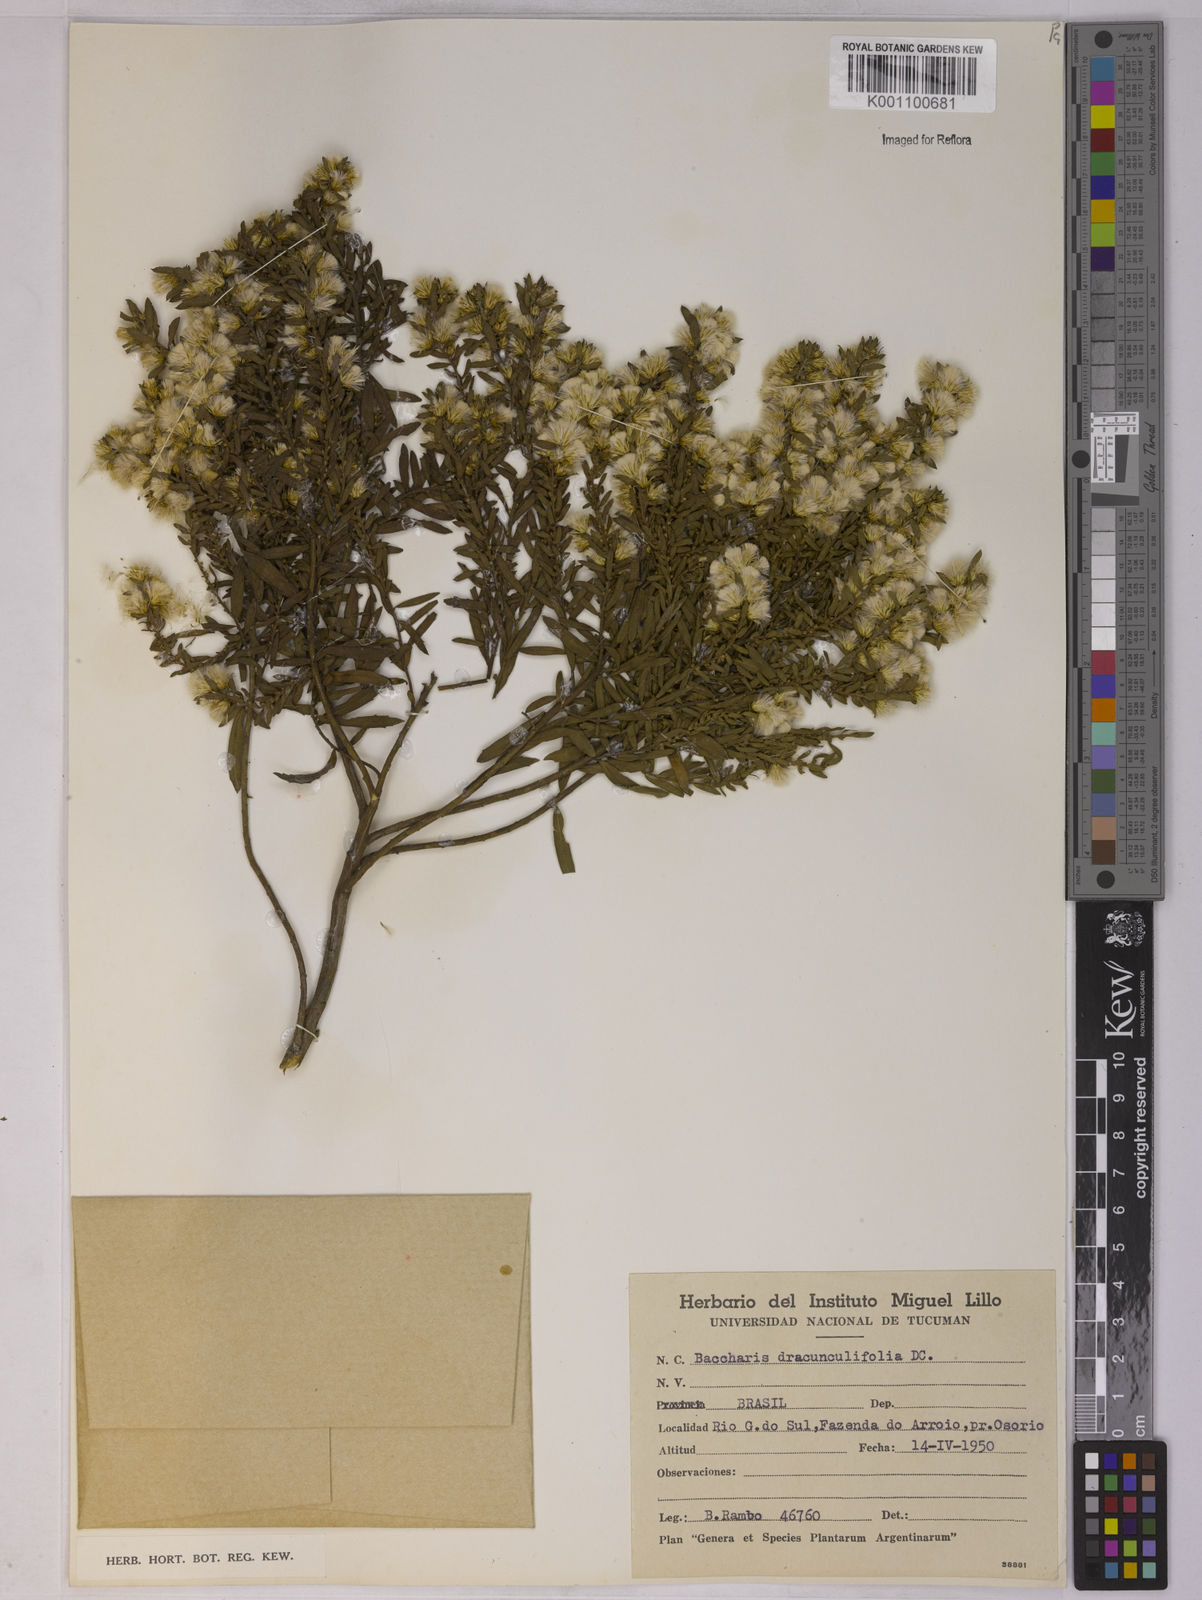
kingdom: Plantae
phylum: Tracheophyta
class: Magnoliopsida
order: Asterales
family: Asteraceae
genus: Baccharis
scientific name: Baccharis dracunculifolia
